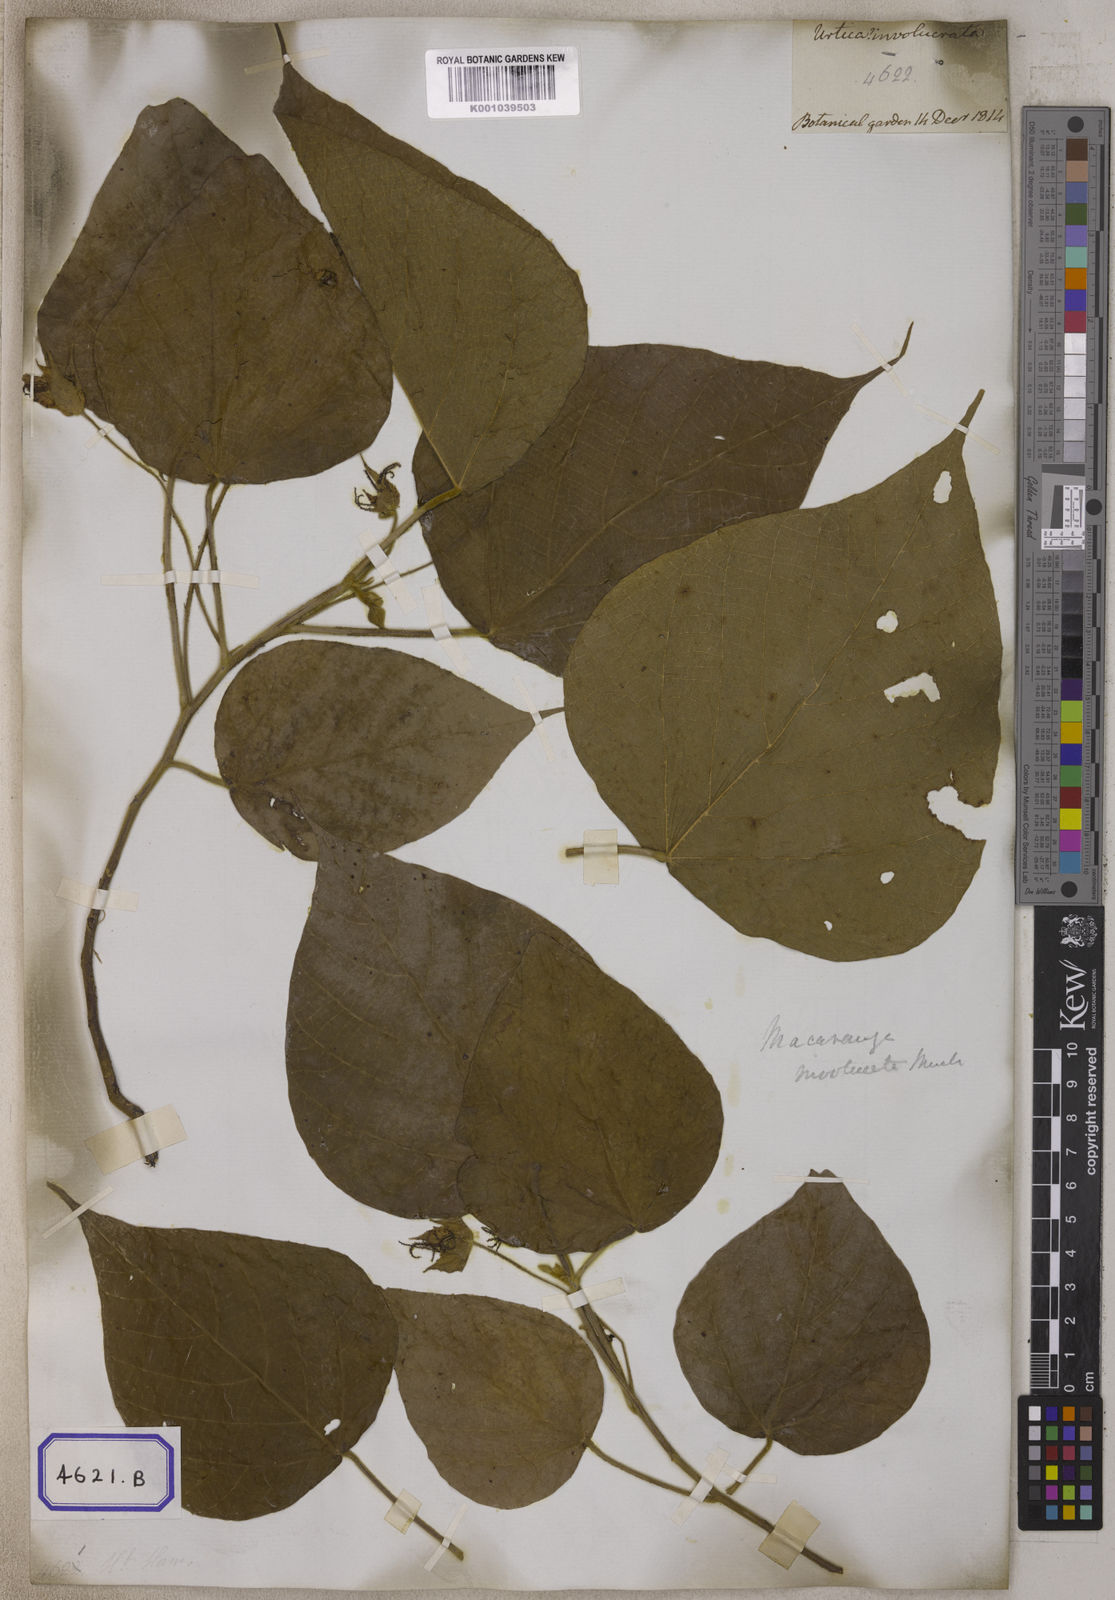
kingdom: Plantae
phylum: Tracheophyta
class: Magnoliopsida
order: Malpighiales
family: Euphorbiaceae
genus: Macaranga
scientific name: Macaranga involucrata
